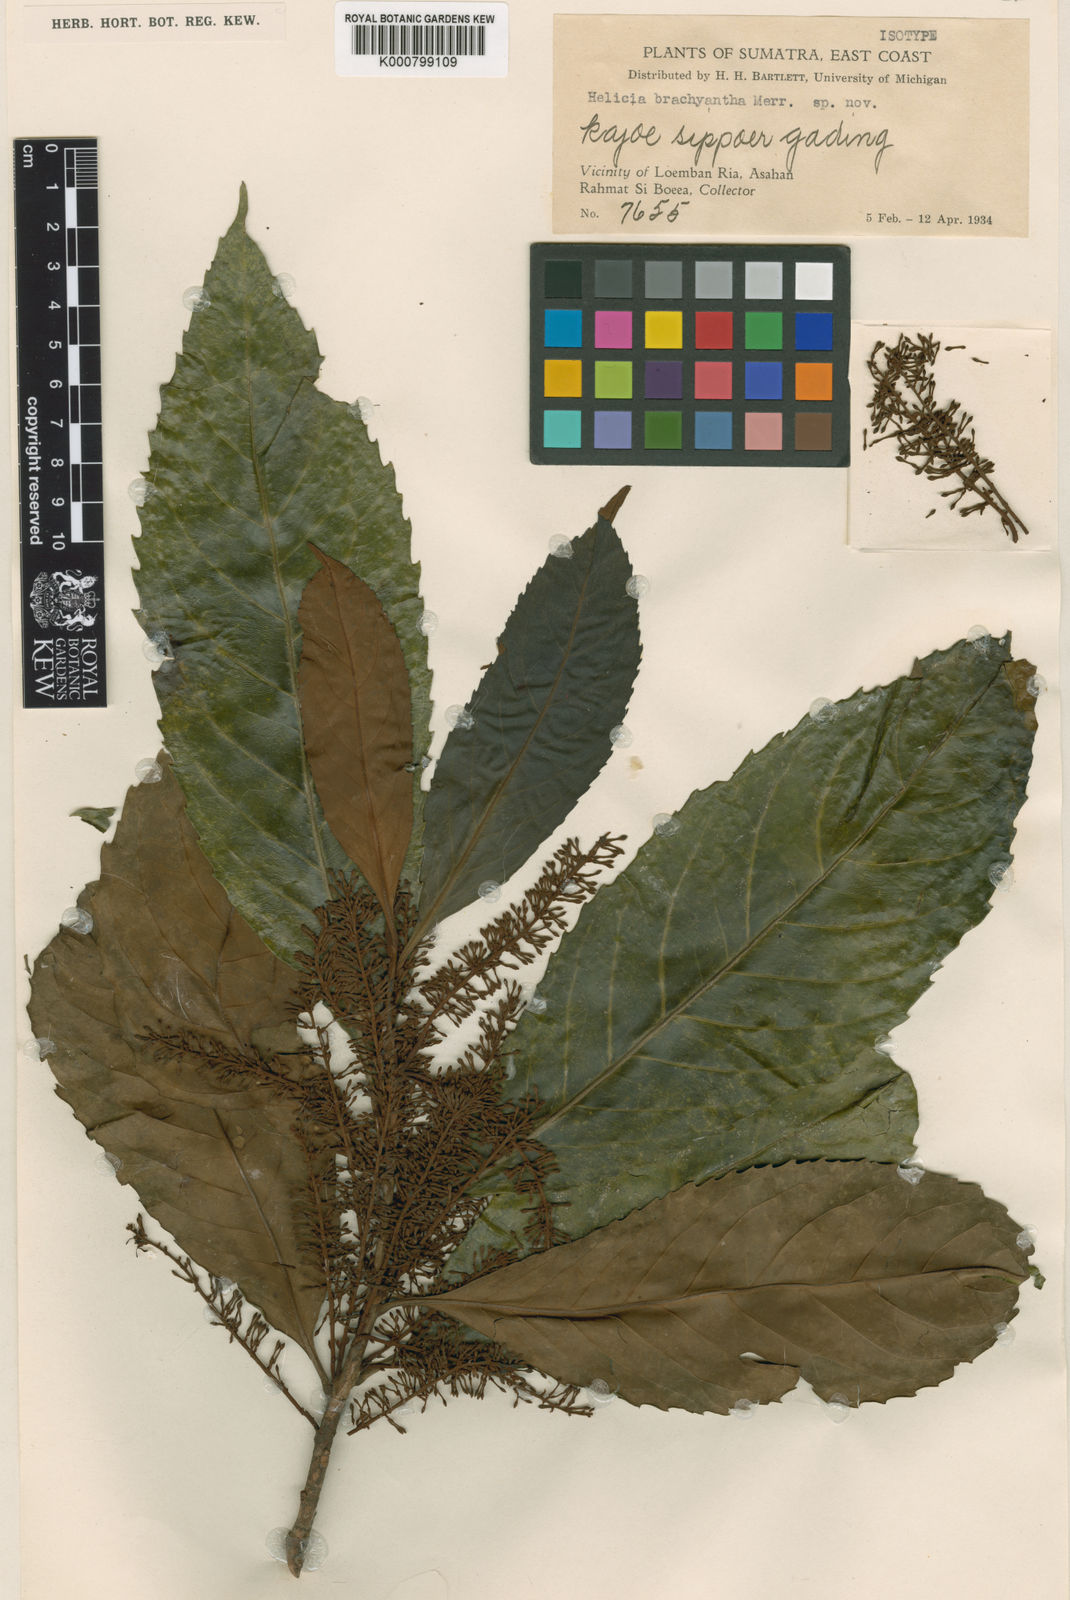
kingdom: Plantae
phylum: Tracheophyta
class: Magnoliopsida
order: Proteales
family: Proteaceae
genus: Helicia
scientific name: Helicia serrata
